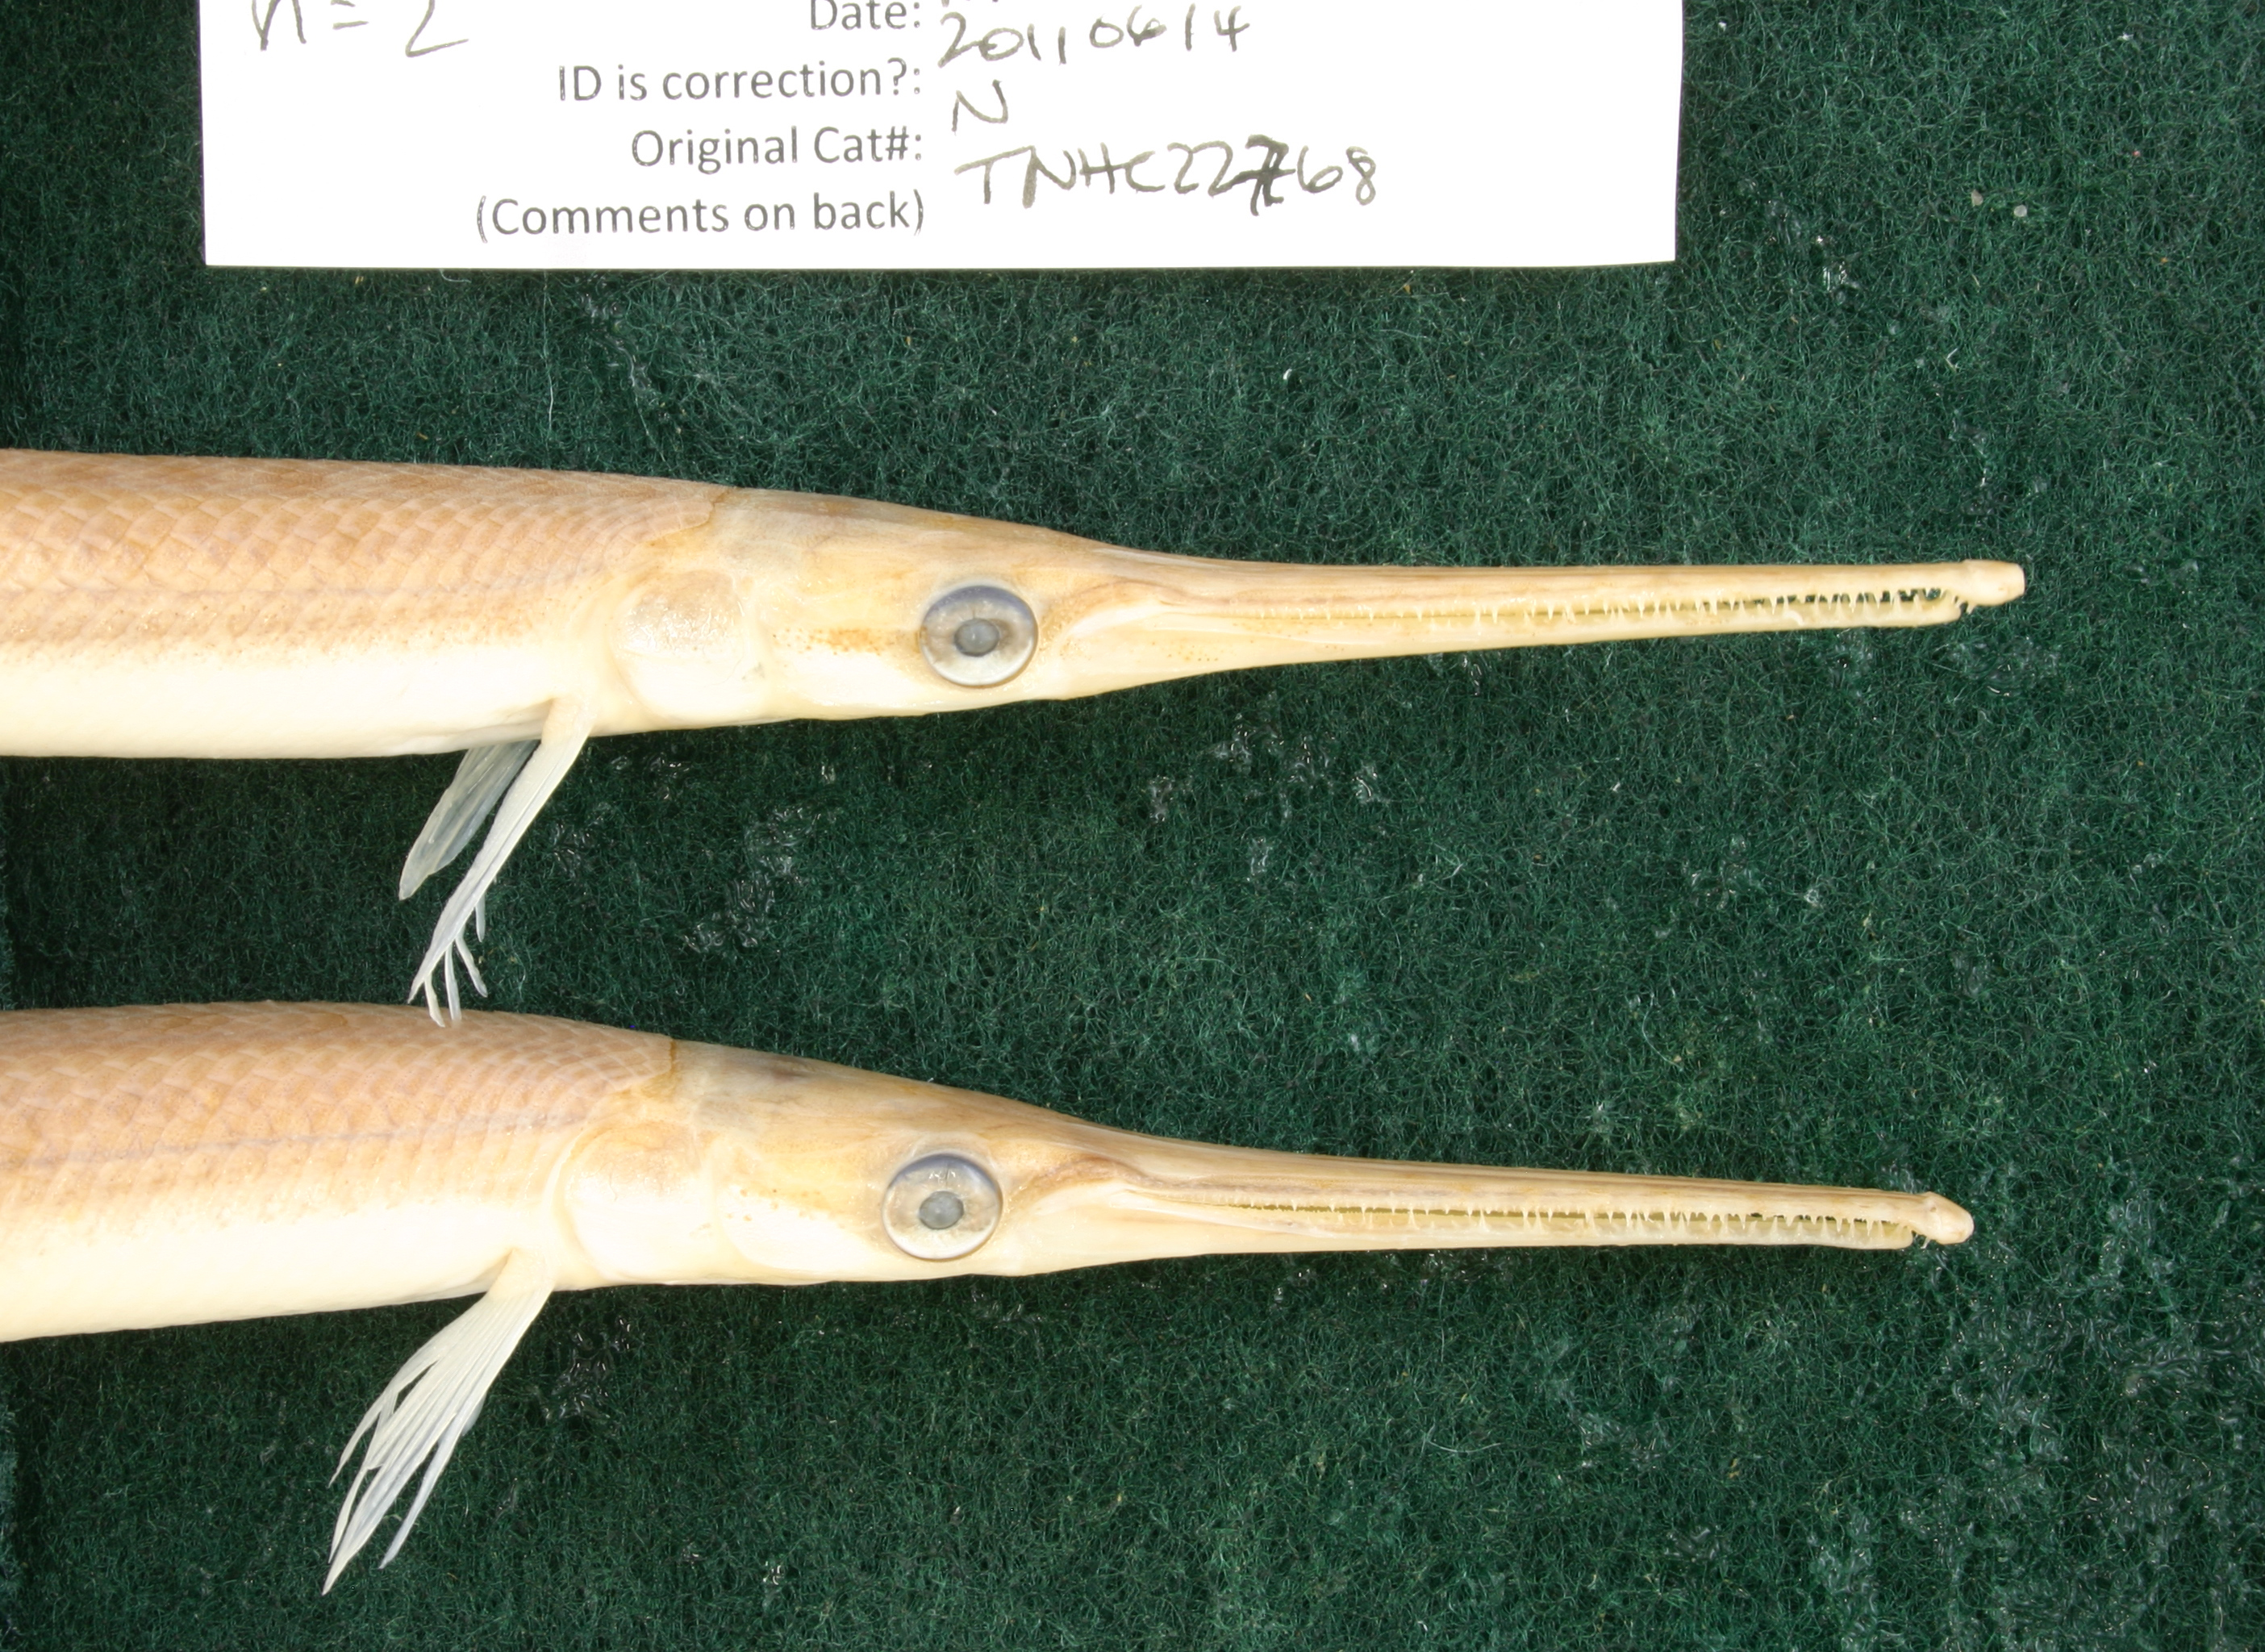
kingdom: Animalia
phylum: Chordata
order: Lepisosteiformes
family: Lepisosteidae
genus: Lepisosteus
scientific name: Lepisosteus osseus
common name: Longnose gar
